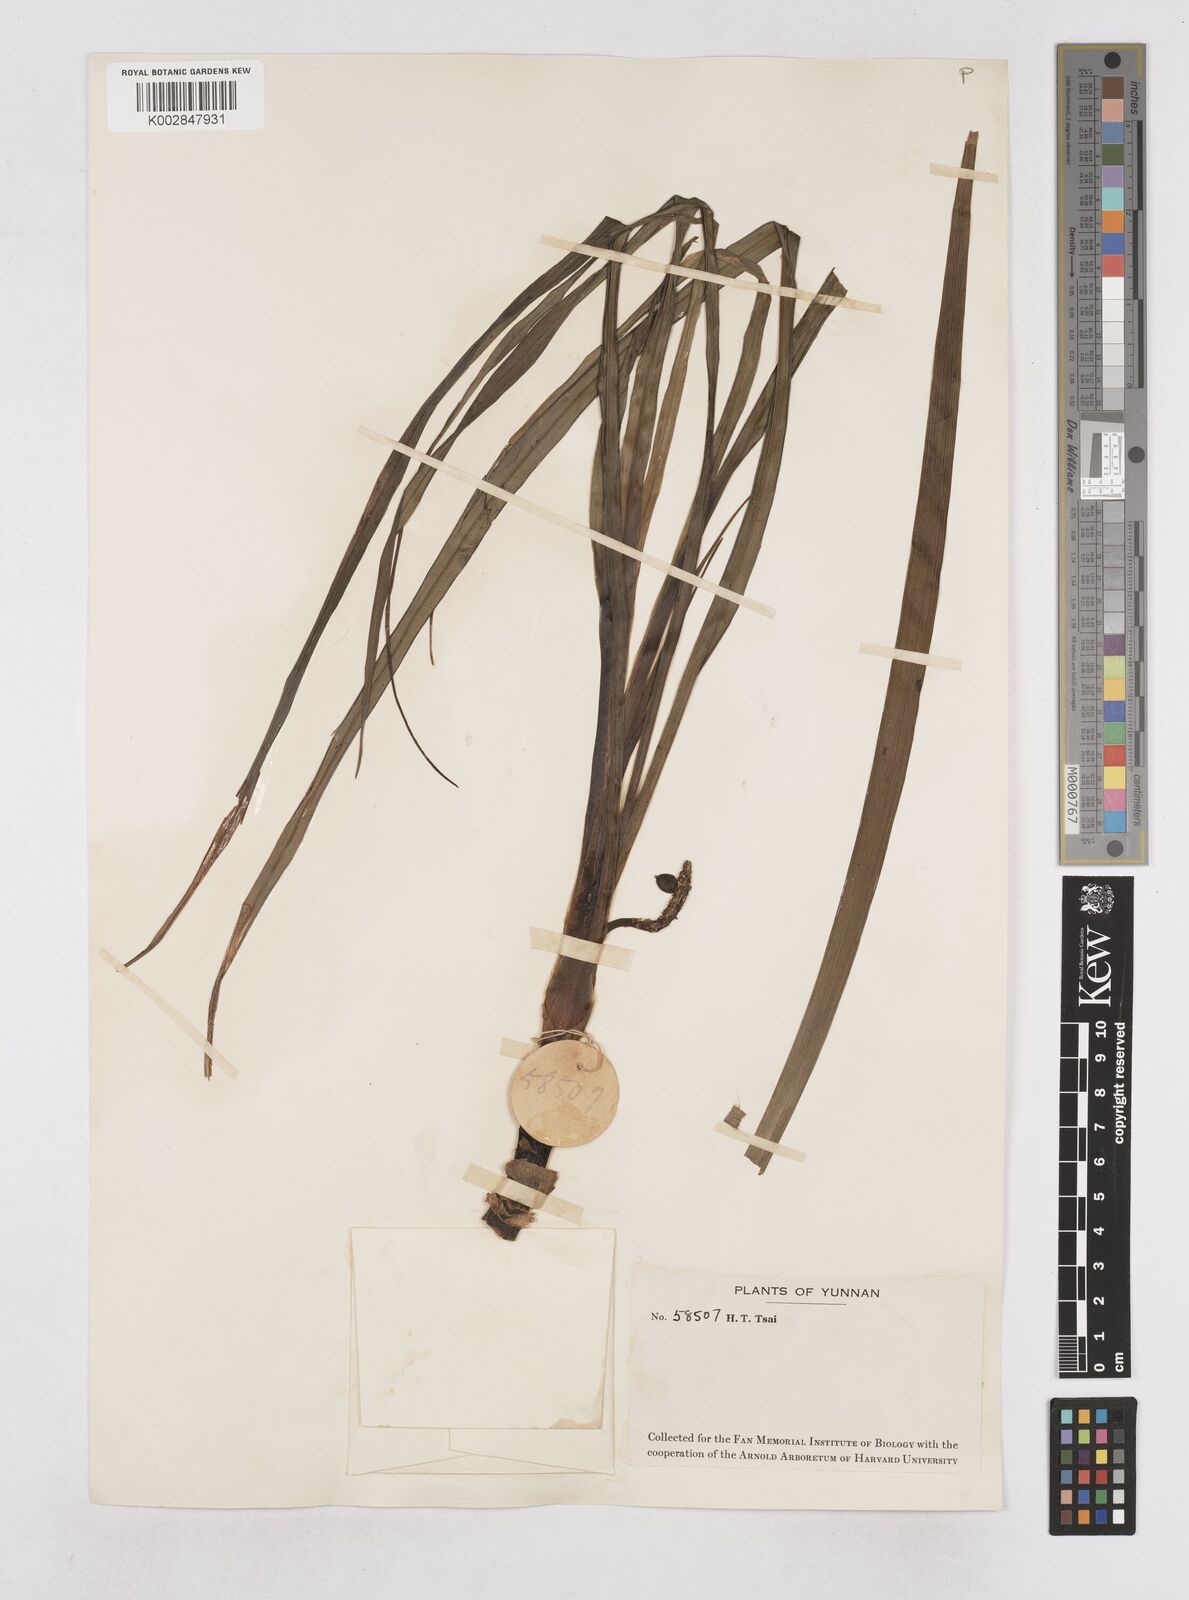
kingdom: Plantae
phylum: Tracheophyta
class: Liliopsida
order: Asparagales
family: Asphodelaceae
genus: Dianella
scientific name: Dianella ensifolia
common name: New zealand lilyplant
